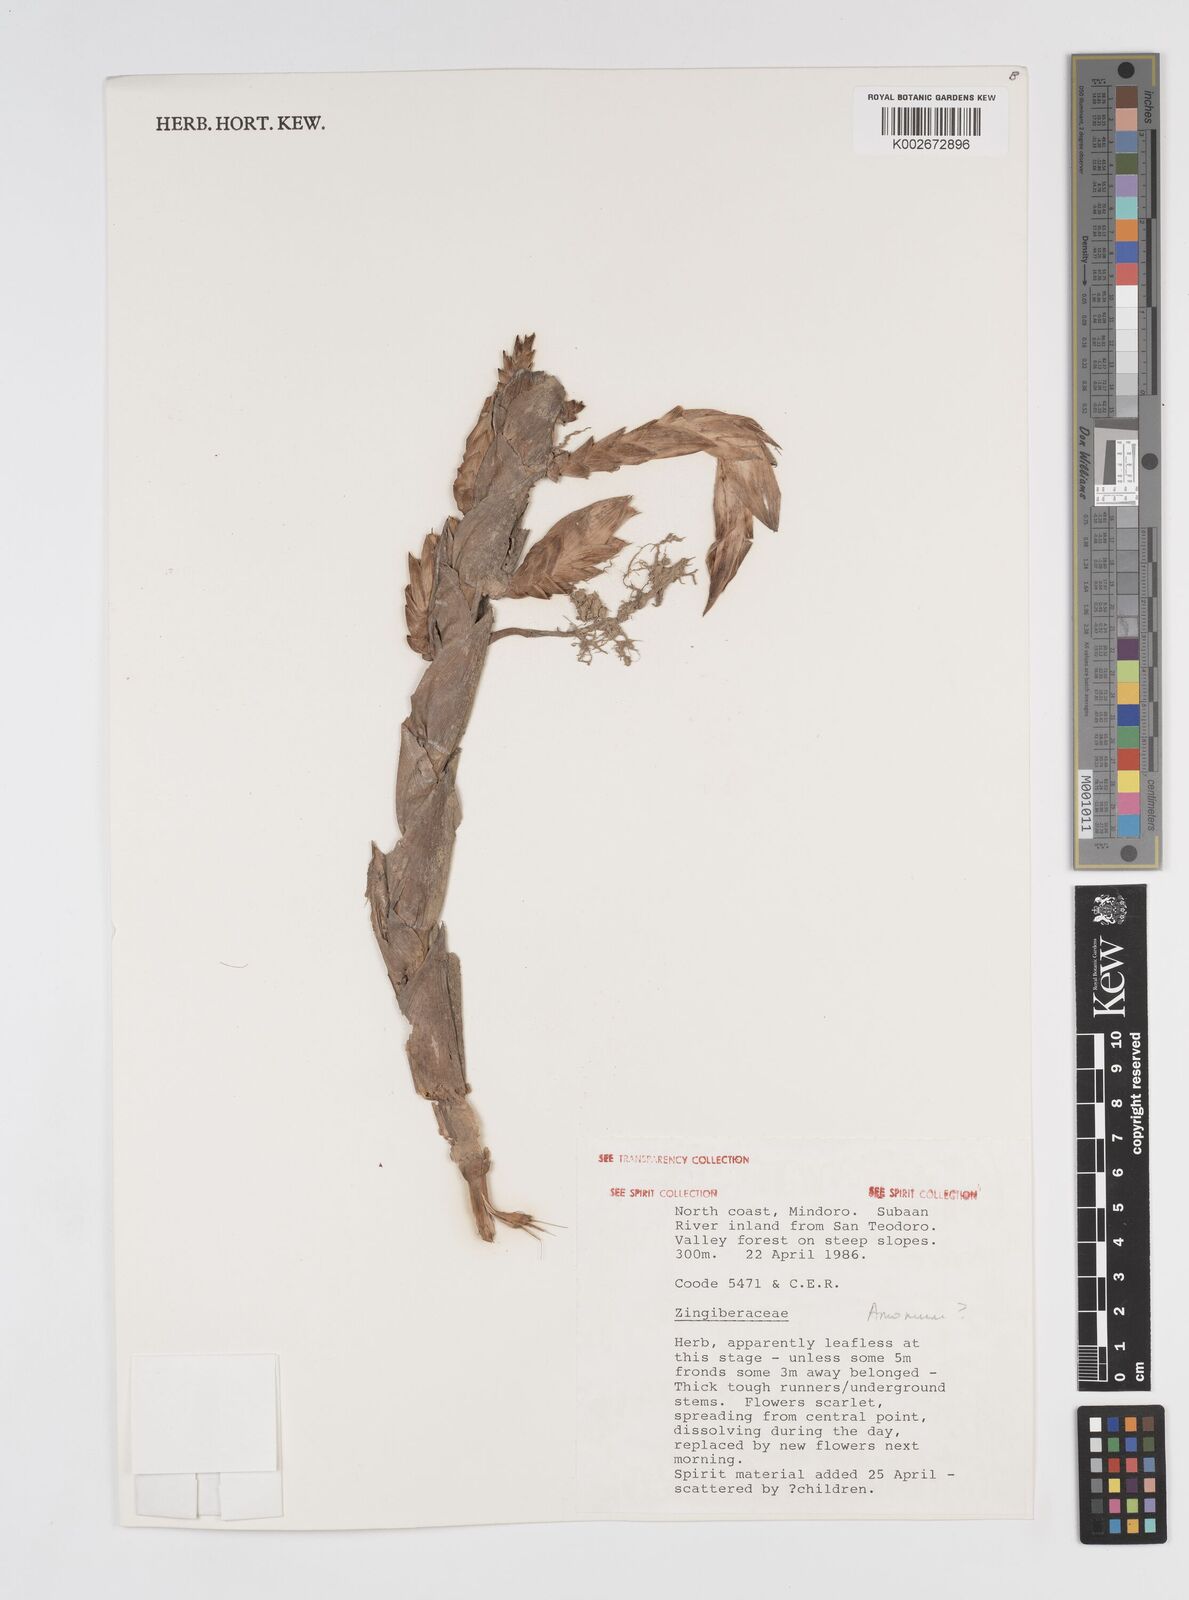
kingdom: Plantae
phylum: Tracheophyta
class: Liliopsida
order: Zingiberales
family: Zingiberaceae
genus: Etlingera
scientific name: Etlingera philippinensis
